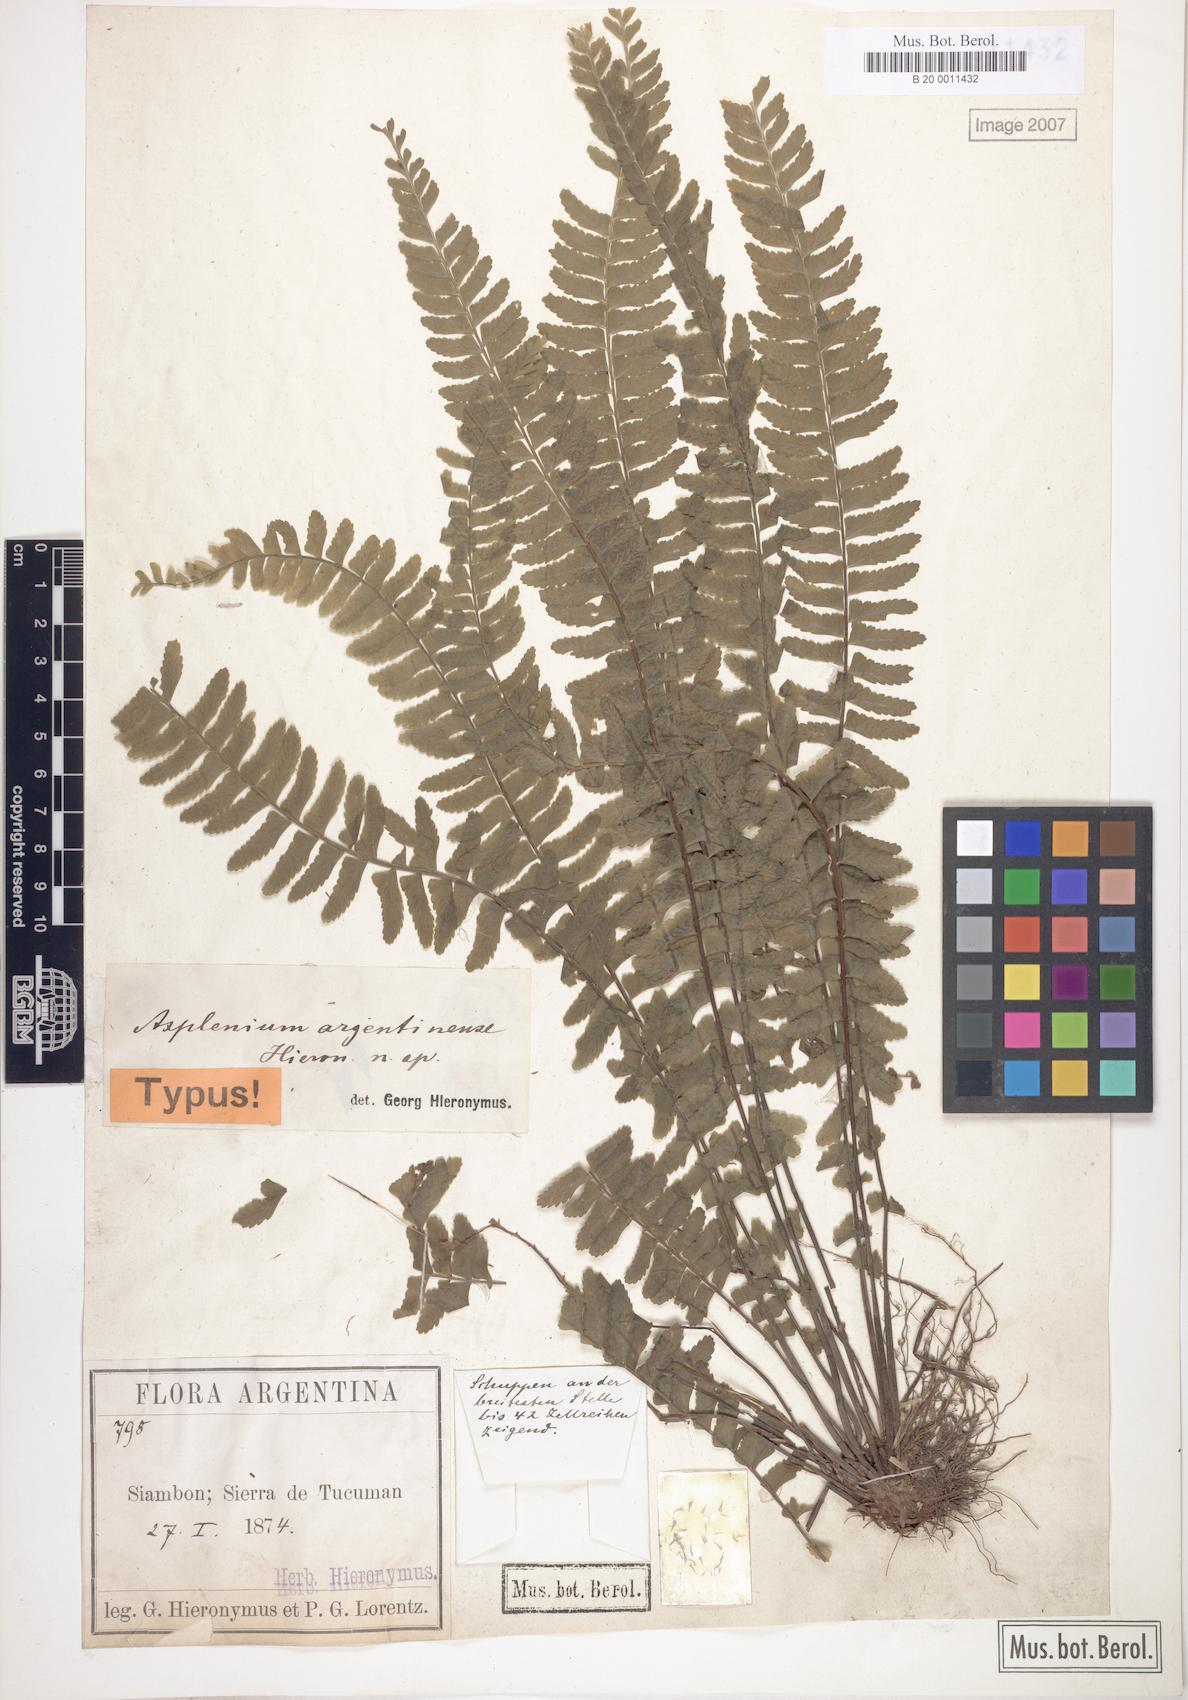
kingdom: Plantae
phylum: Tracheophyta
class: Polypodiopsida
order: Polypodiales
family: Aspleniaceae
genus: Asplenium
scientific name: Asplenium argentinum
